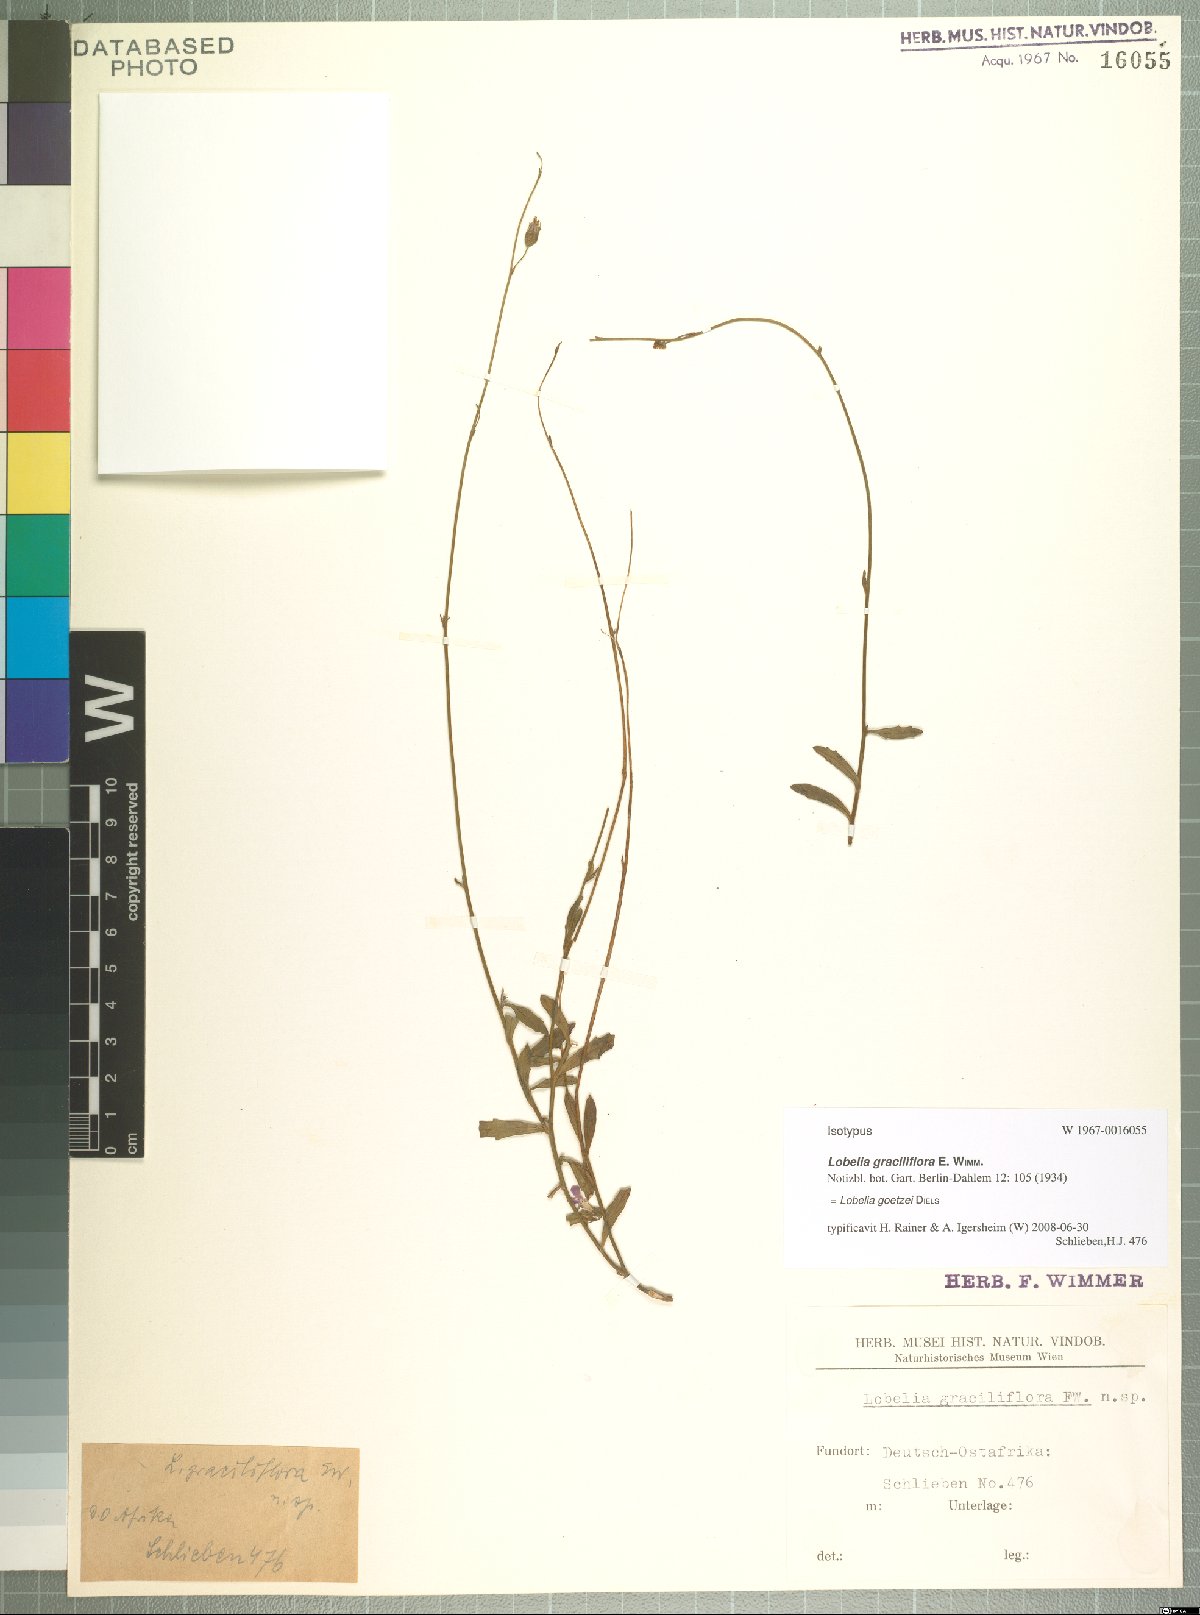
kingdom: Plantae
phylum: Tracheophyta
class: Magnoliopsida
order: Asterales
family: Campanulaceae
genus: Lobelia
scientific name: Lobelia goetzei
